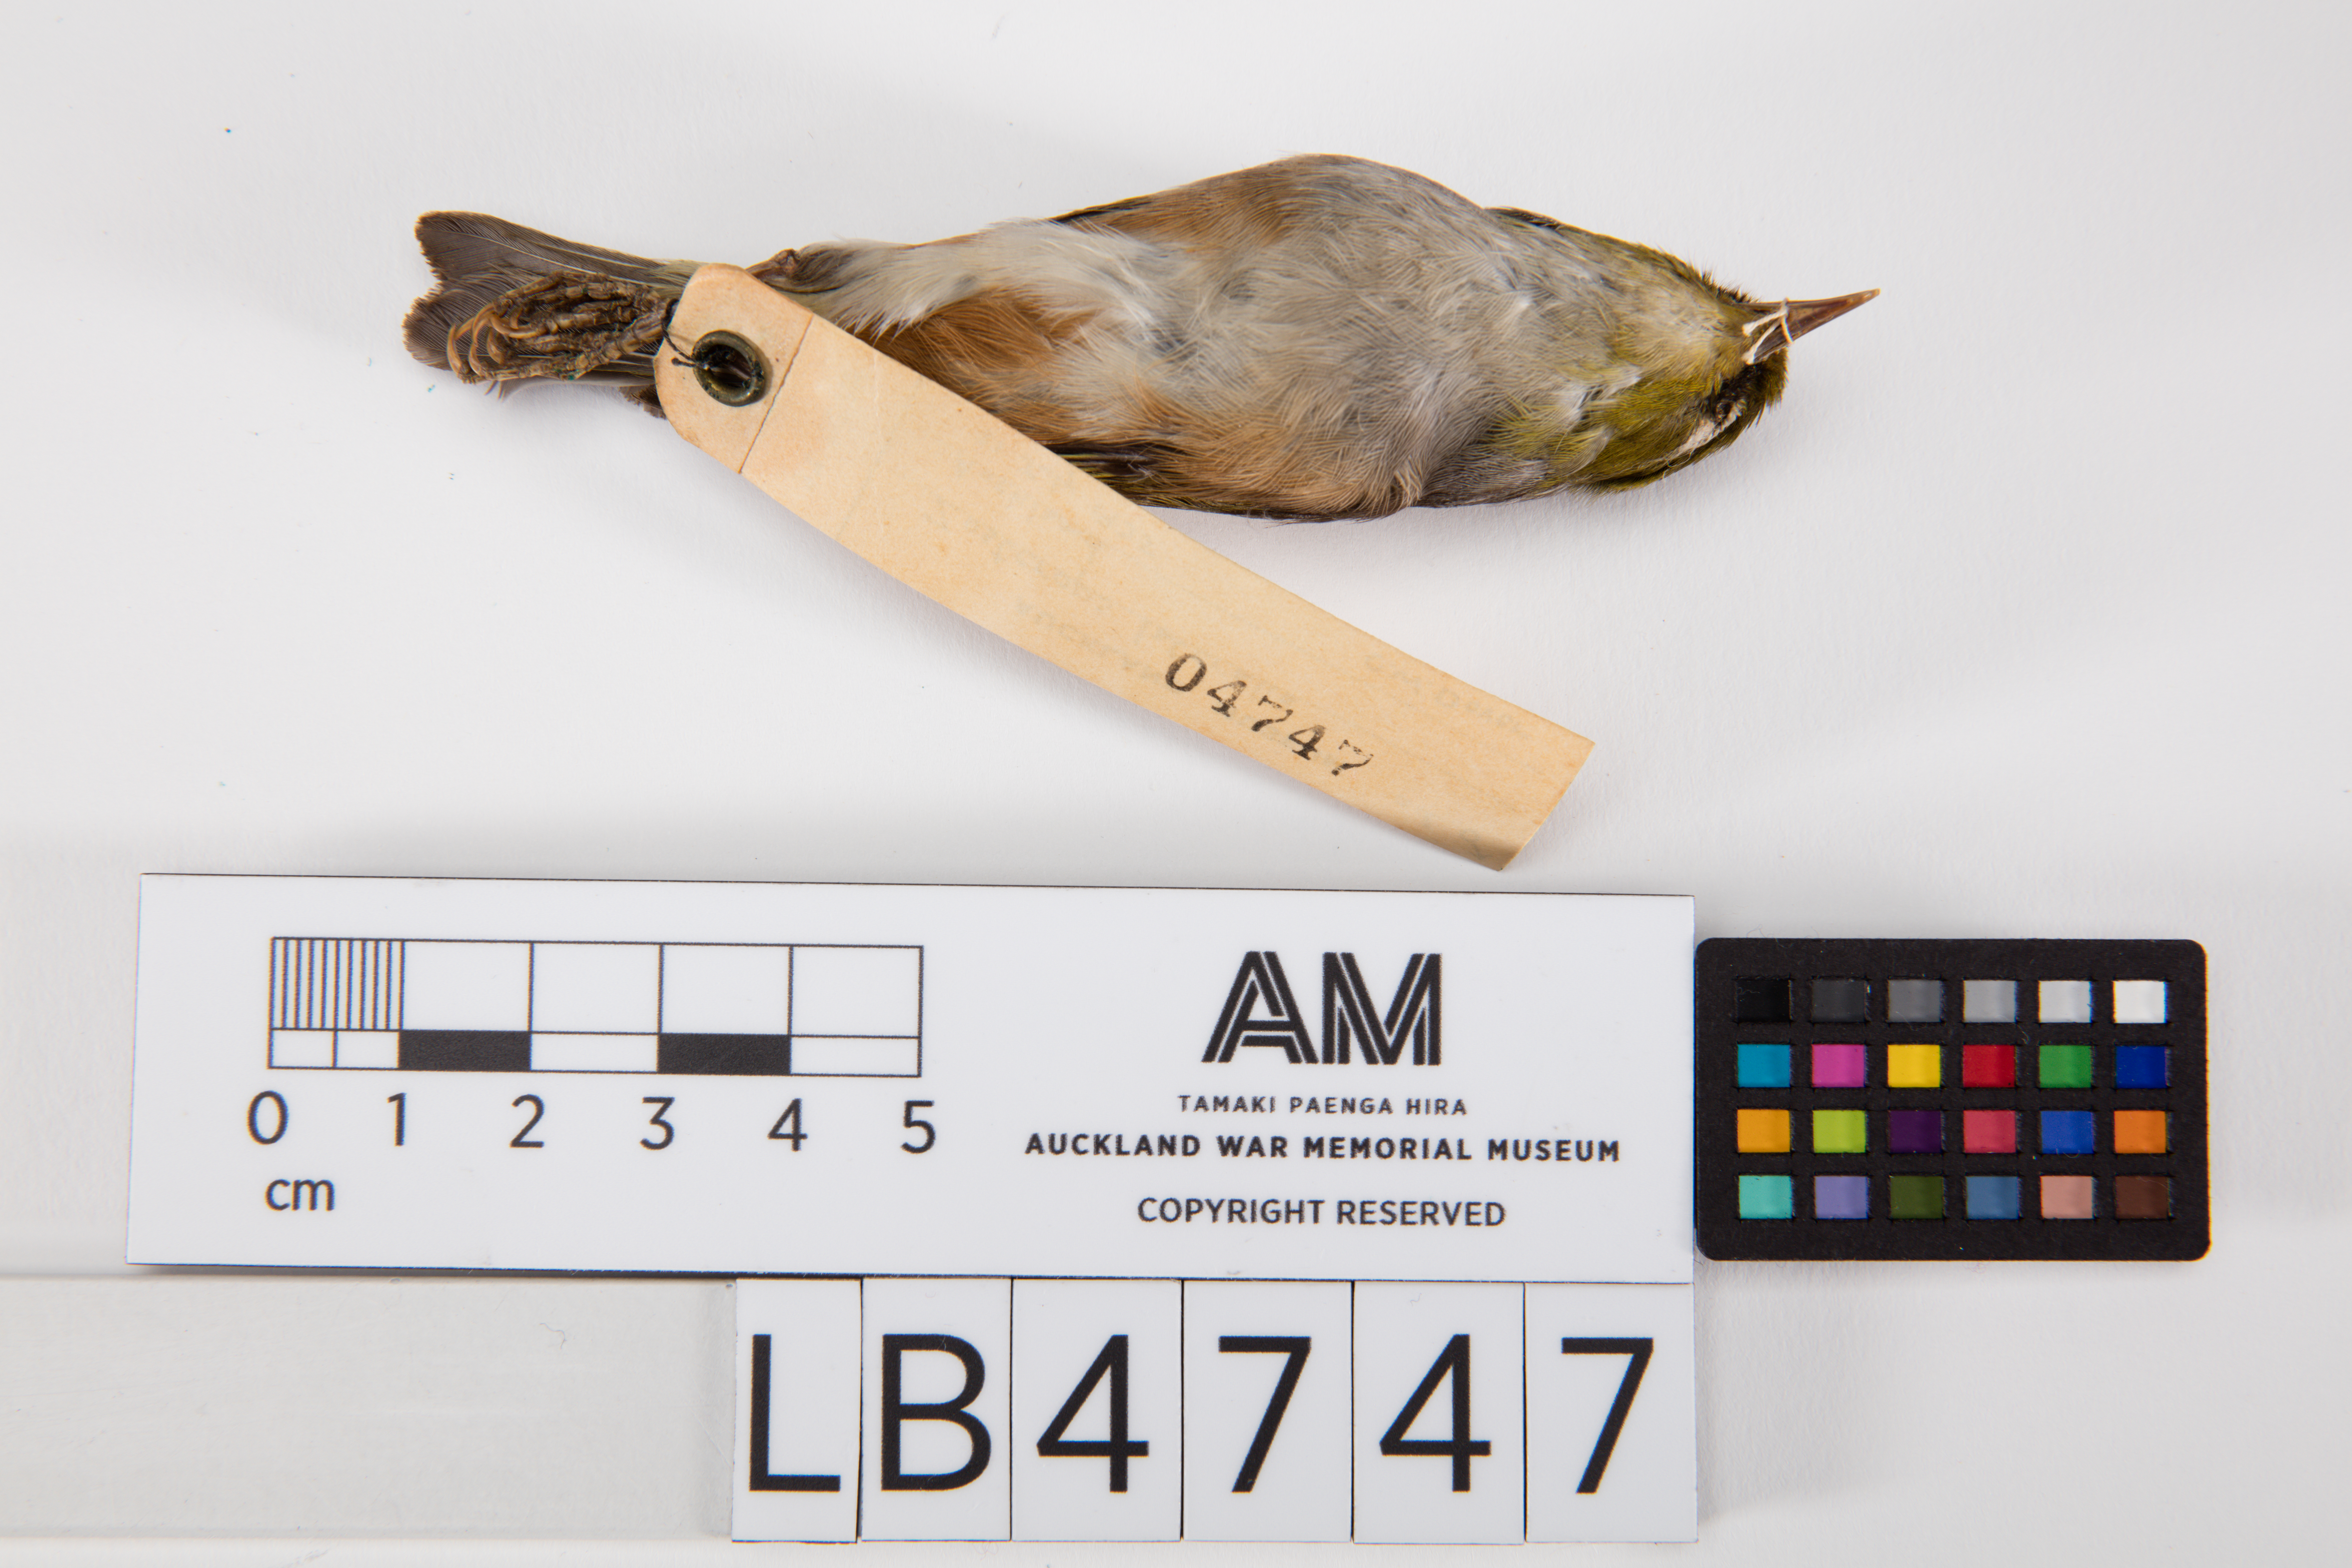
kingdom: Animalia
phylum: Chordata
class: Aves
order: Passeriformes
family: Zosteropidae
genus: Zosterops
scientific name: Zosterops lateralis
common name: Silvereye
